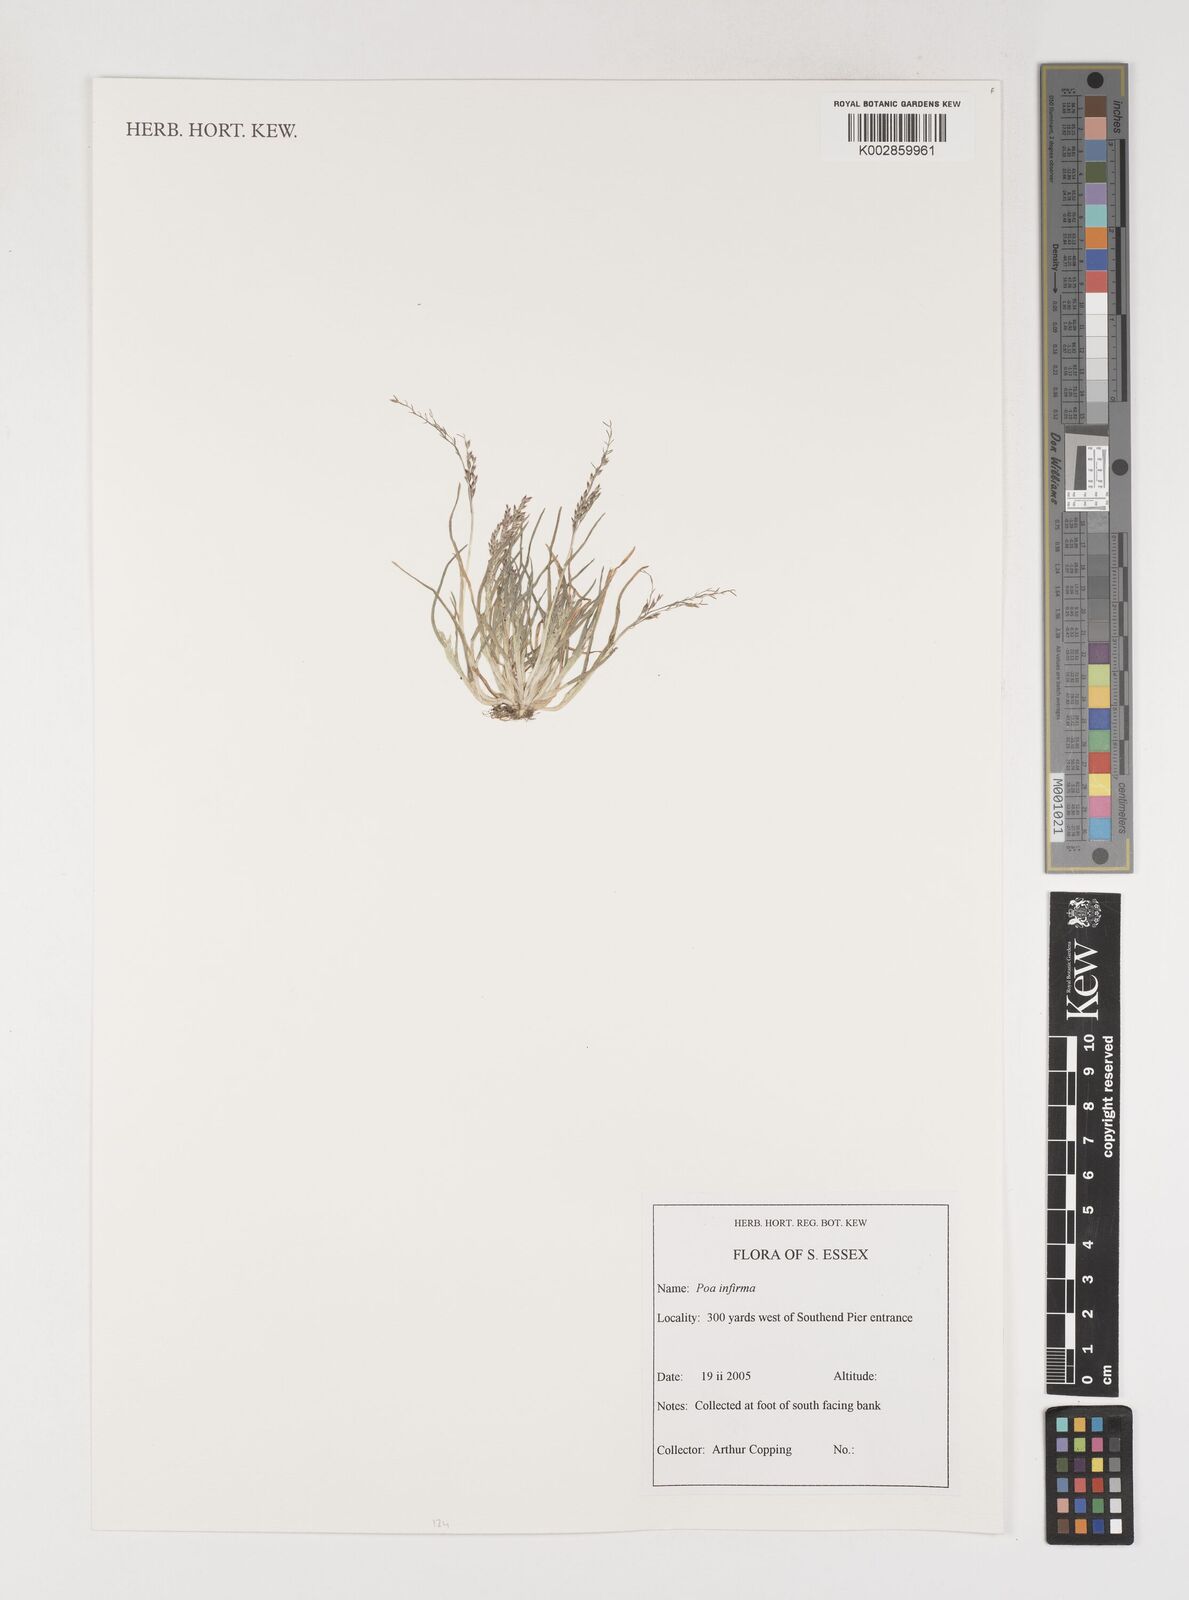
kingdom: Plantae
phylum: Tracheophyta
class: Liliopsida
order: Poales
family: Poaceae
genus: Poa
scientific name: Poa infirma
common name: Weak bluegrass
